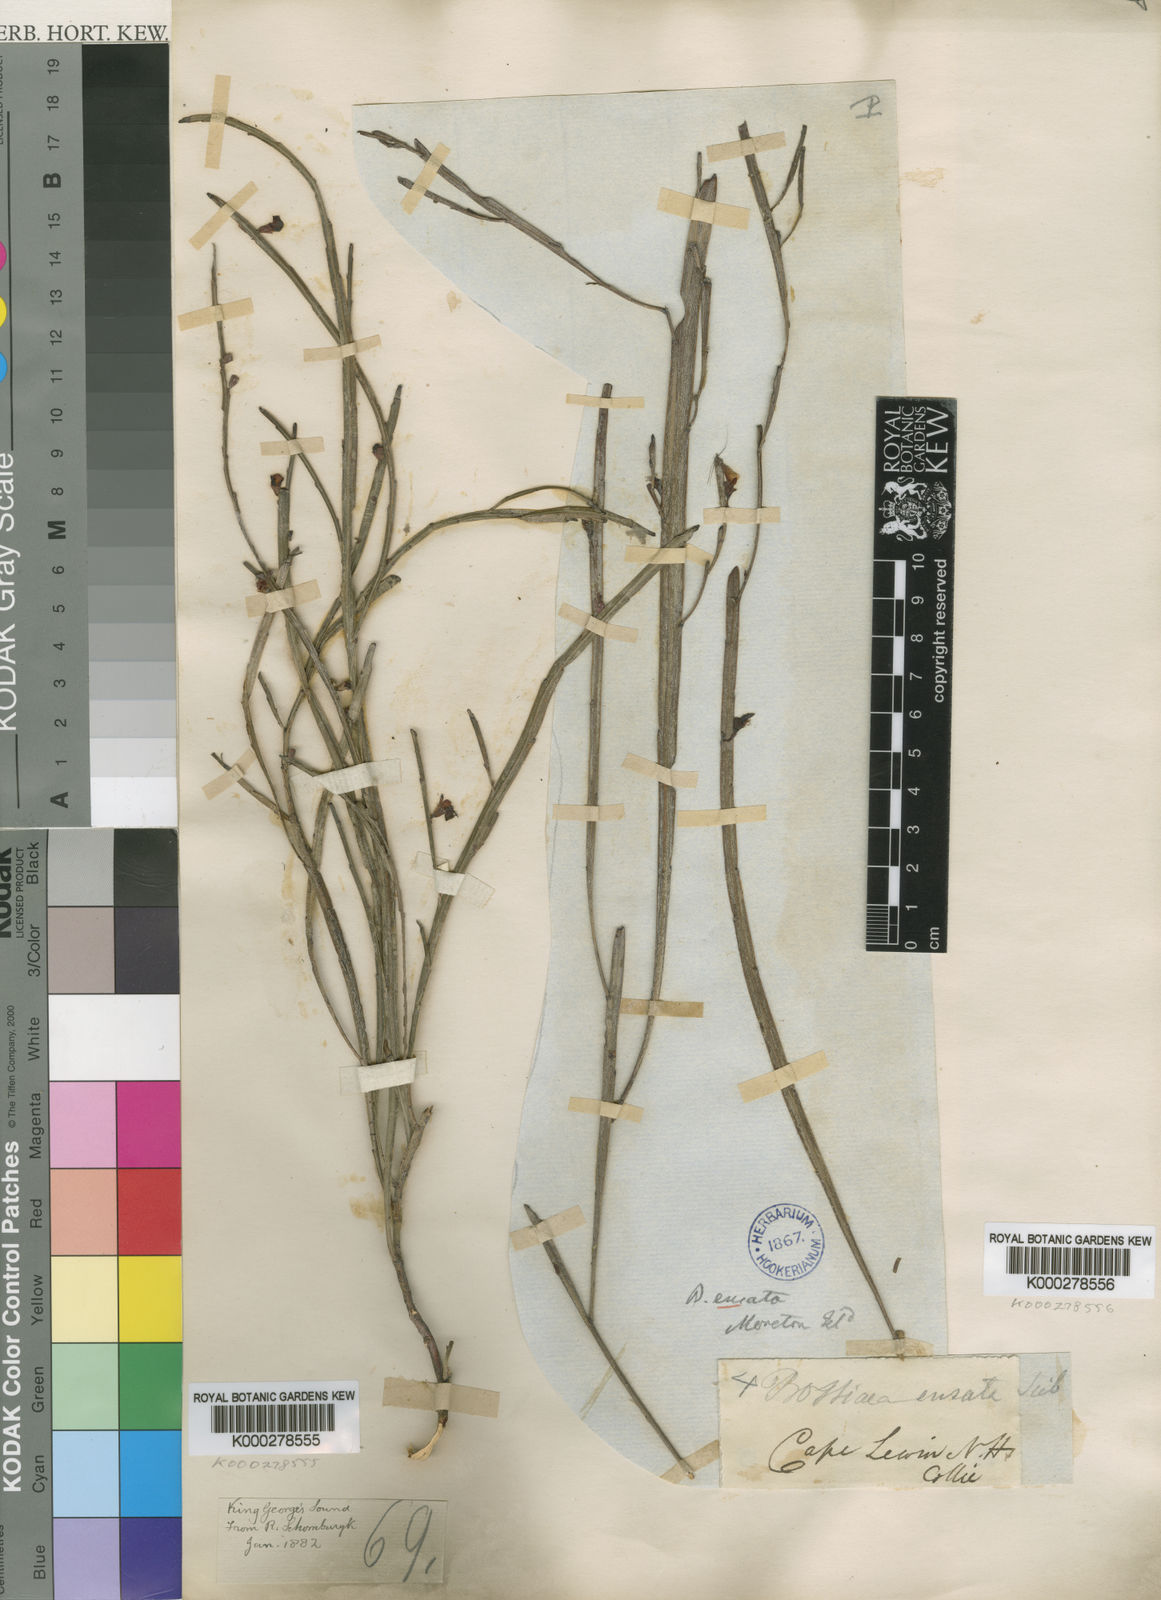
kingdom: Plantae
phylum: Tracheophyta
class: Magnoliopsida
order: Fabales
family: Fabaceae
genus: Bossiaea
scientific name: Bossiaea ensata
